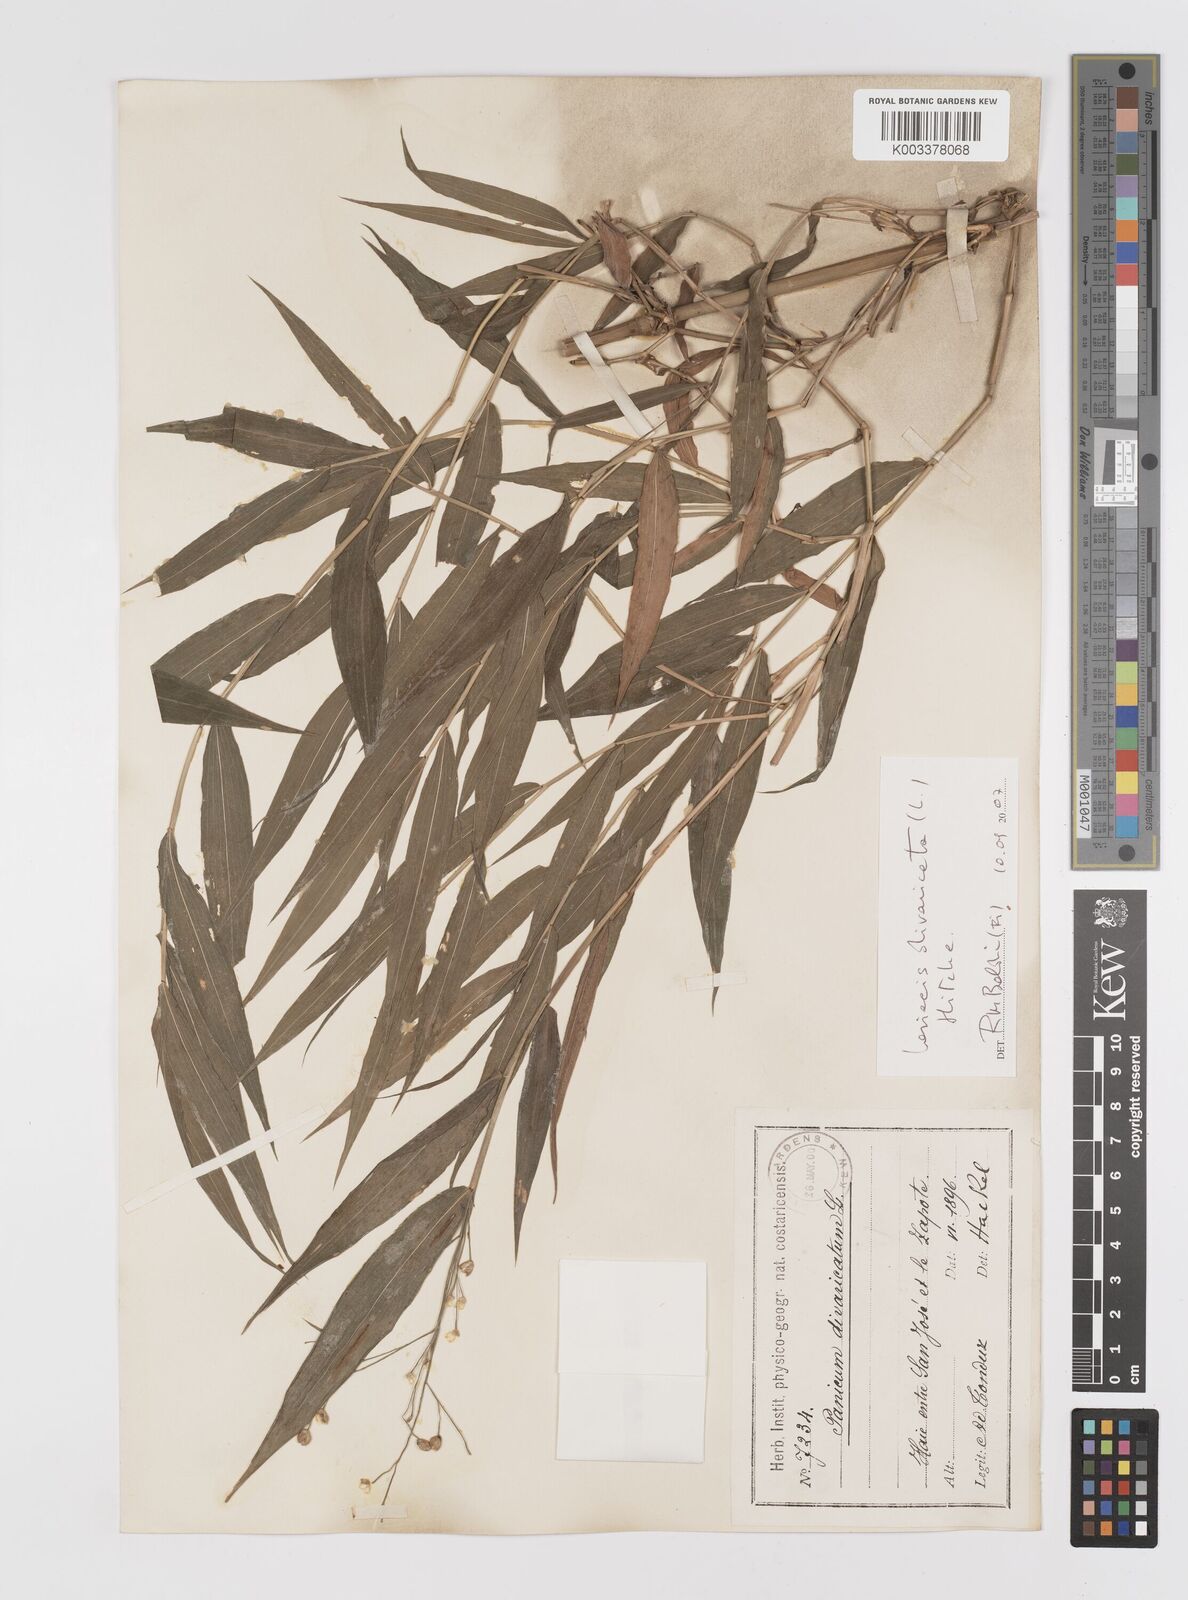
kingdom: Plantae
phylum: Tracheophyta
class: Liliopsida
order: Poales
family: Poaceae
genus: Lasiacis
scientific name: Lasiacis divaricata
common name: Smallcane
